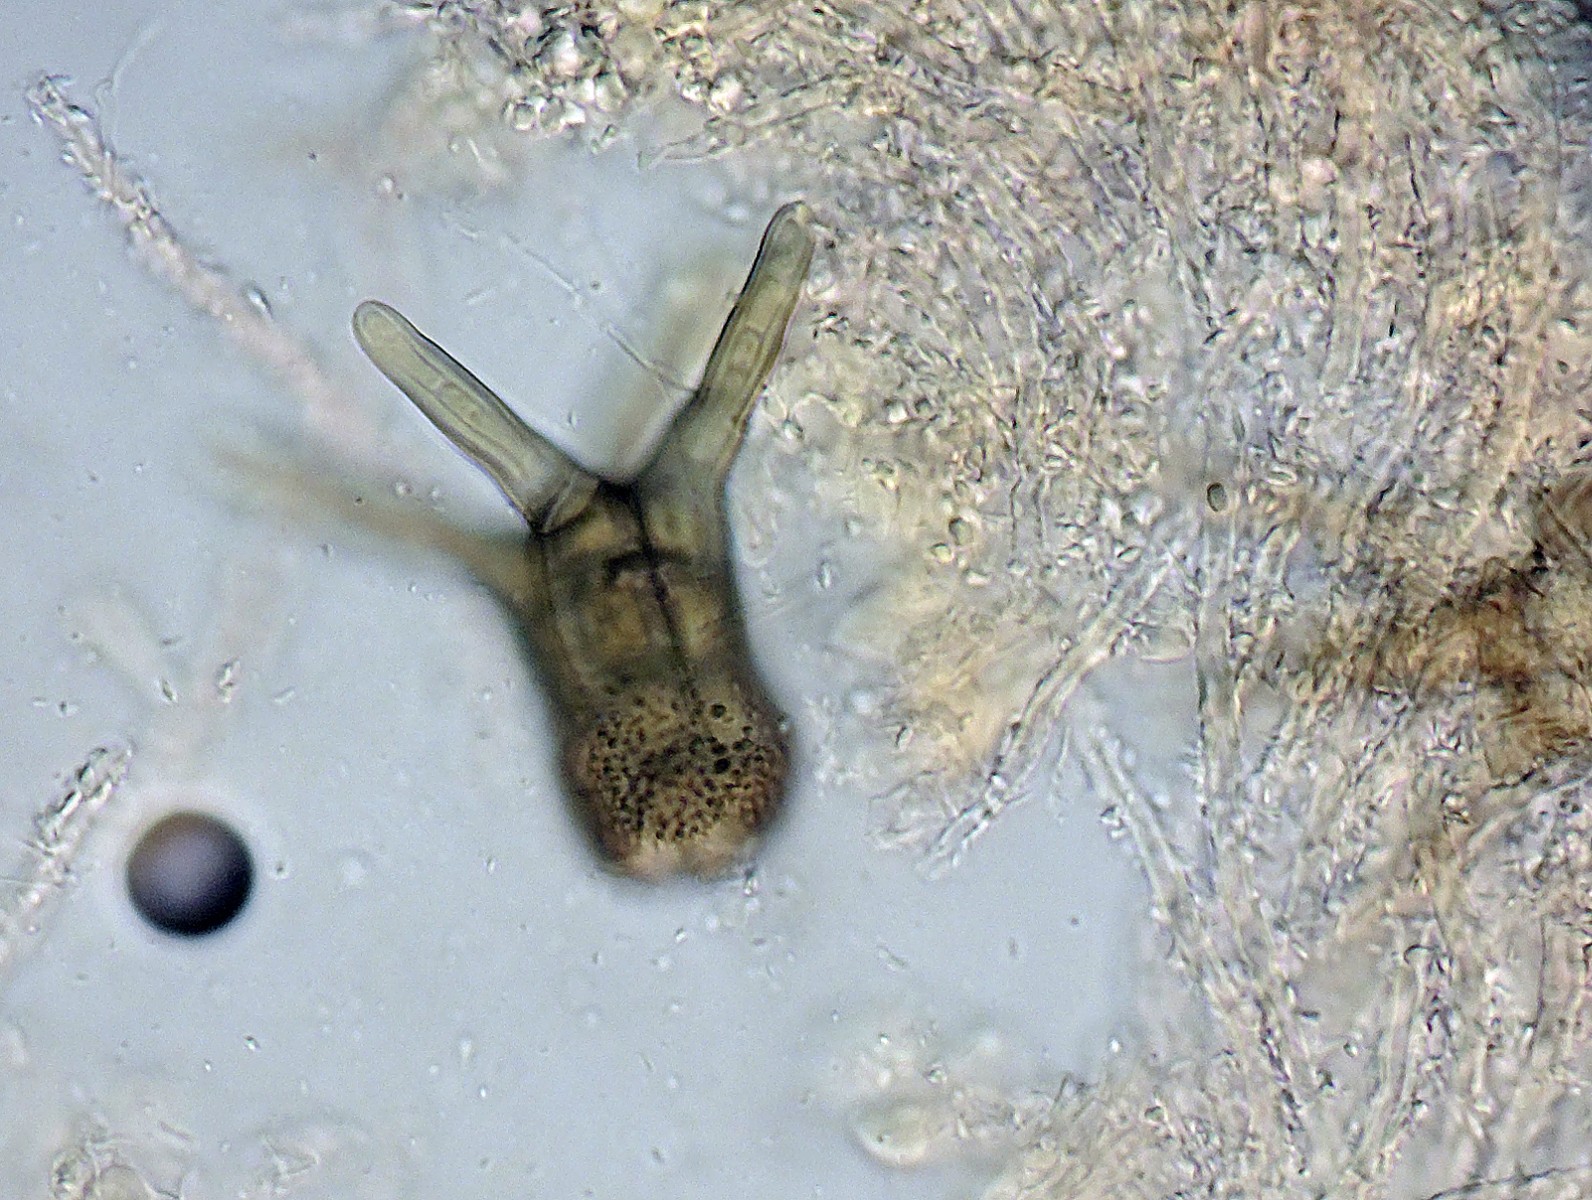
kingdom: Fungi
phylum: Ascomycota
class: Dothideomycetes
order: Pleosporales
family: Tetraplosphaeriaceae
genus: Tetraploa
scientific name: Tetraploa aristata
